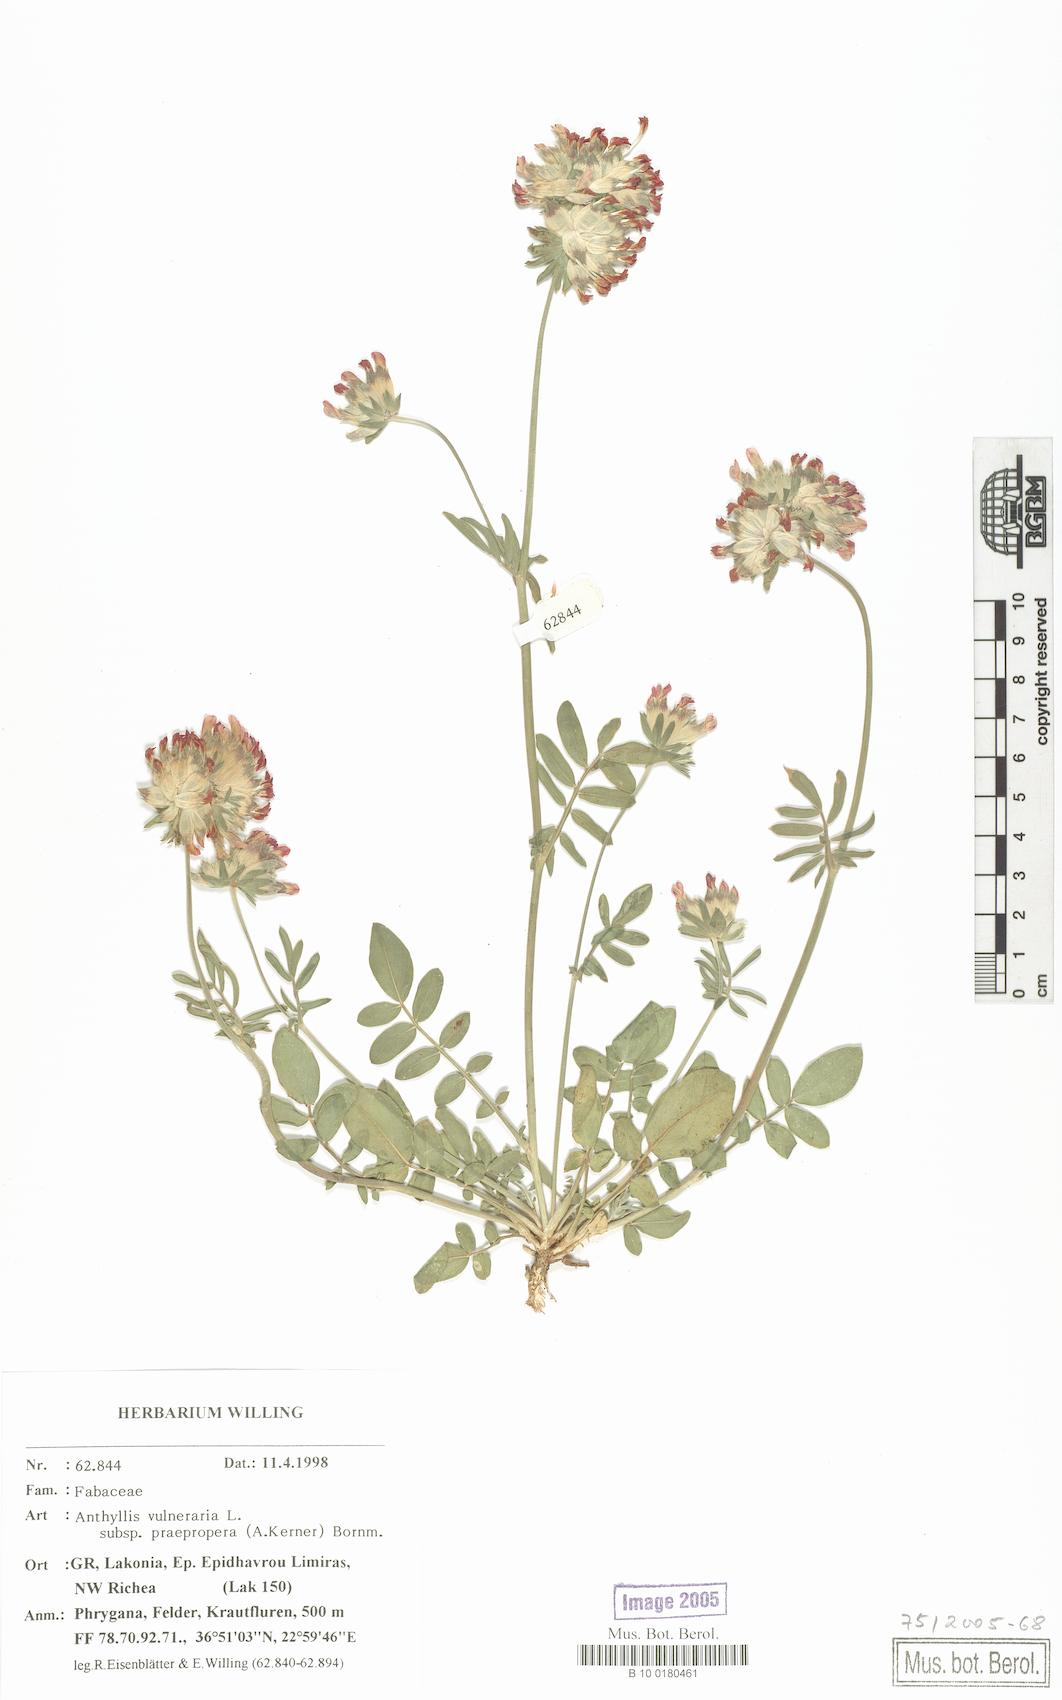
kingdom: Plantae
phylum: Tracheophyta
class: Magnoliopsida
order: Fabales
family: Fabaceae
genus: Anthyllis
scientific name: Anthyllis vulneraria
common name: Kidney vetch
